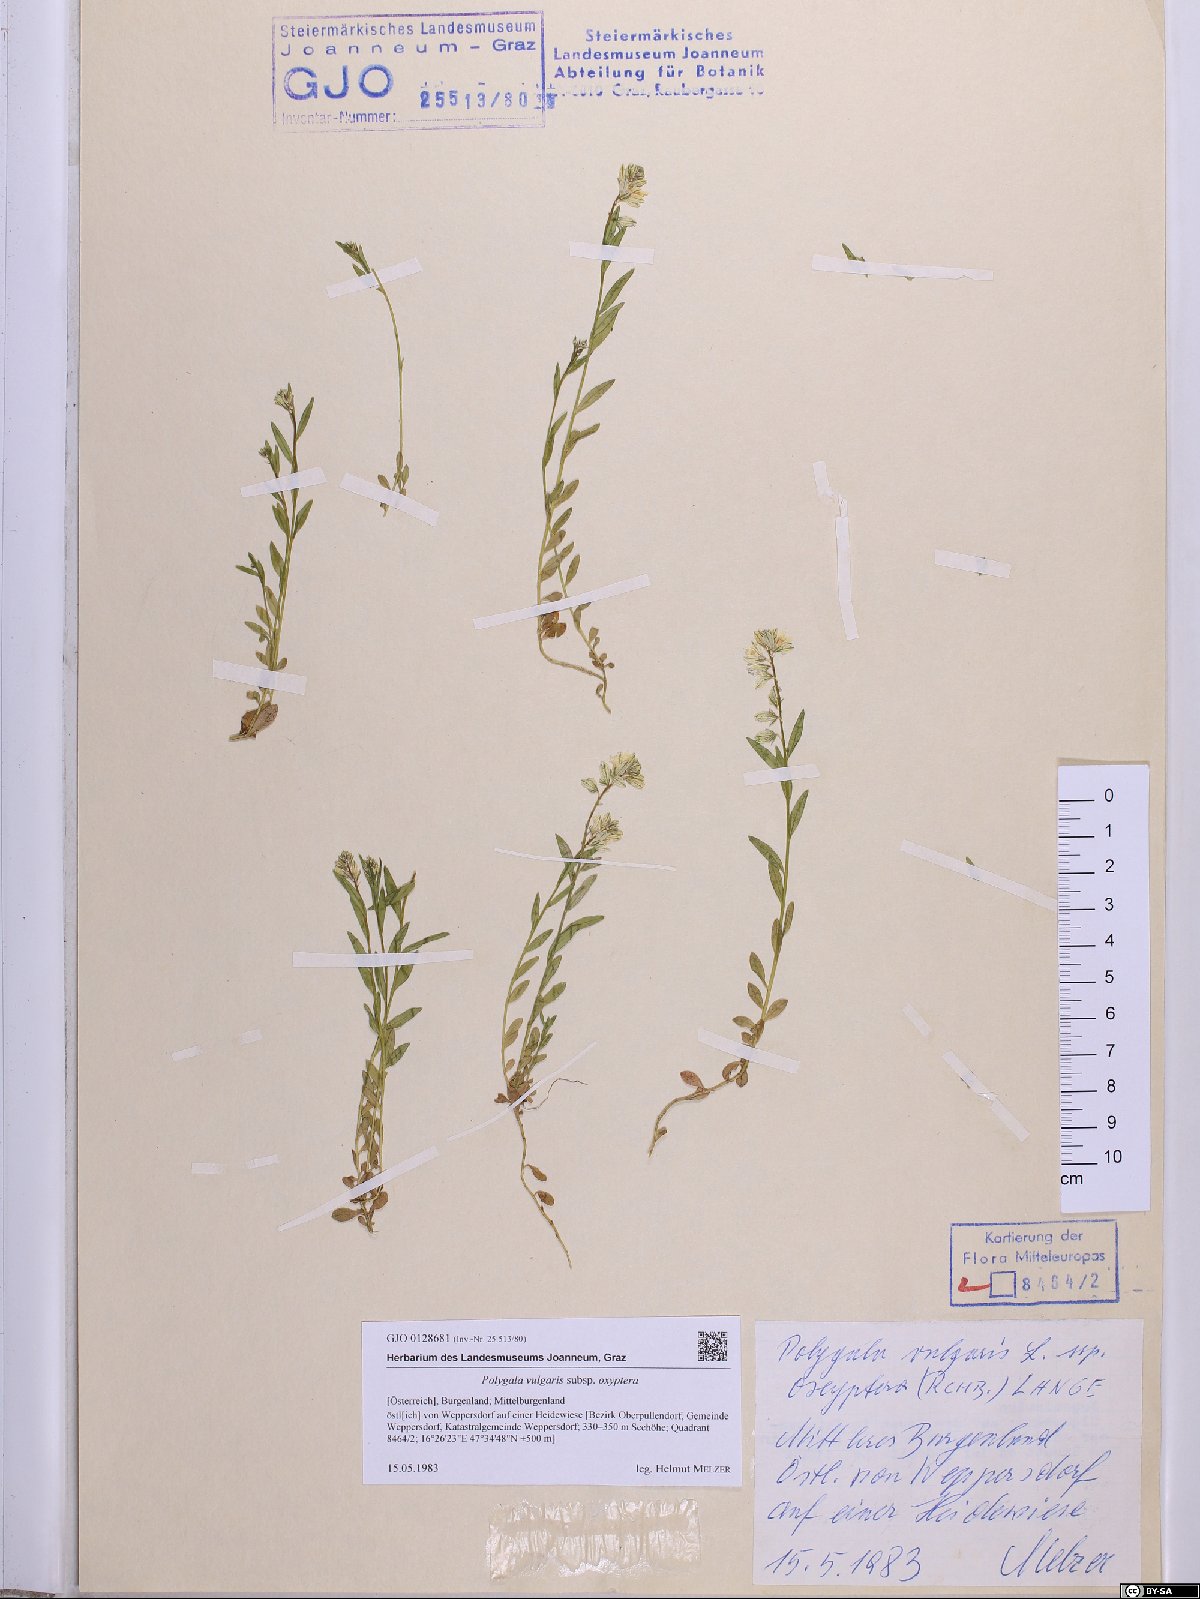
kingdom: Plantae
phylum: Tracheophyta
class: Magnoliopsida
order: Fabales
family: Polygalaceae
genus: Polygala
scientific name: Polygala vulgaris
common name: Common milkwort
